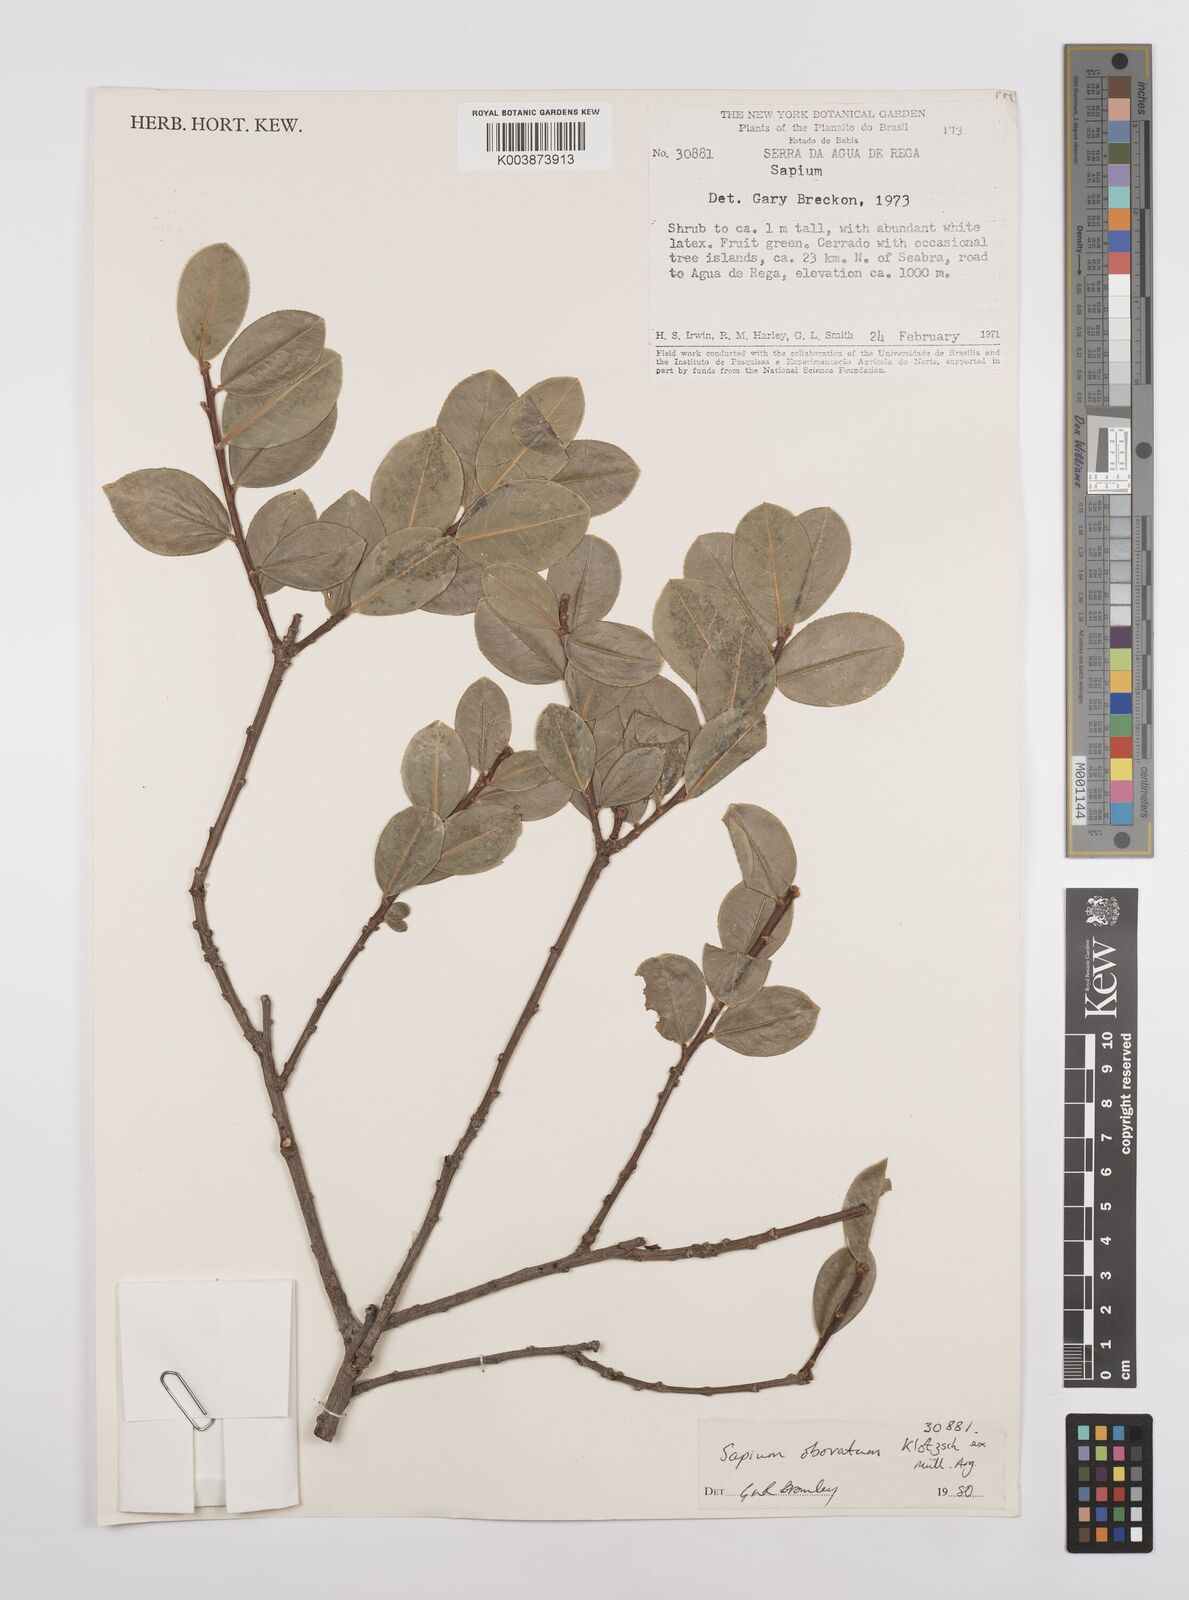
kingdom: Plantae
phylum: Tracheophyta
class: Magnoliopsida
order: Malpighiales
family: Euphorbiaceae
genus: Sapium
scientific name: Sapium obovatum
